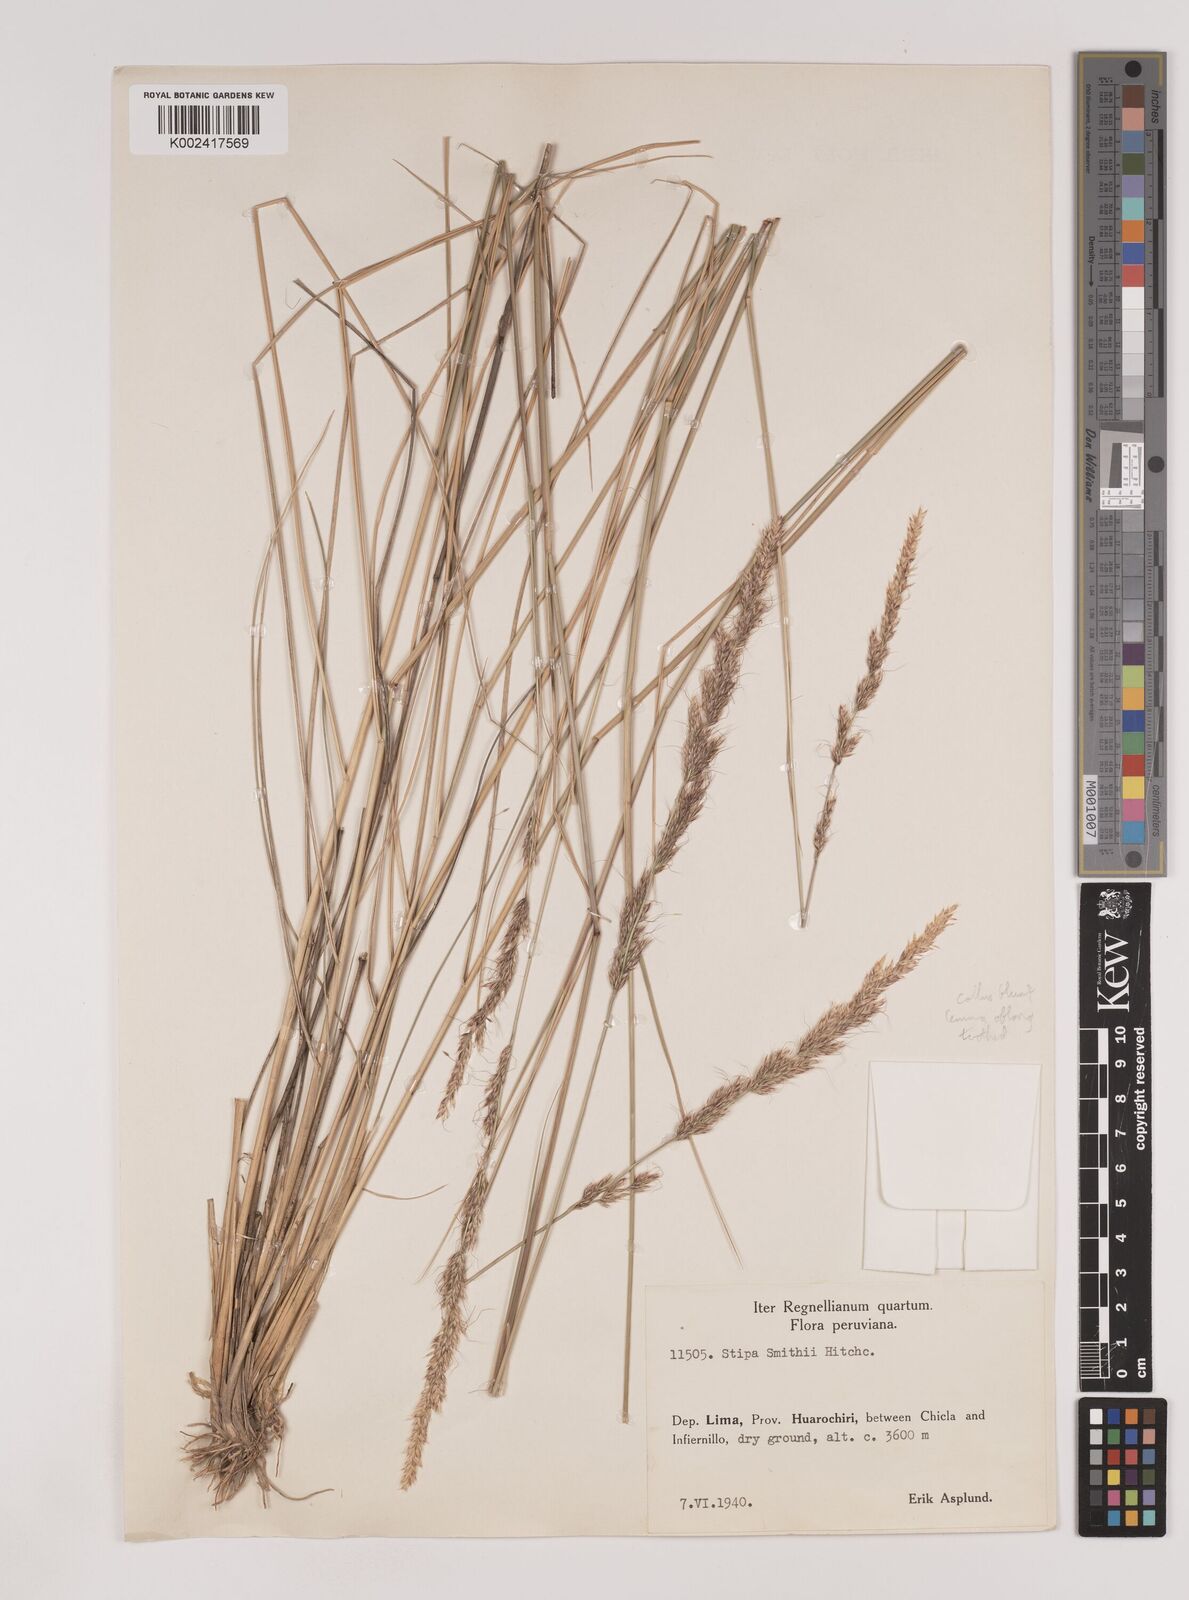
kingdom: Plantae
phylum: Tracheophyta
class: Liliopsida
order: Poales
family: Poaceae
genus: Nassella
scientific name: Nassella smithii
